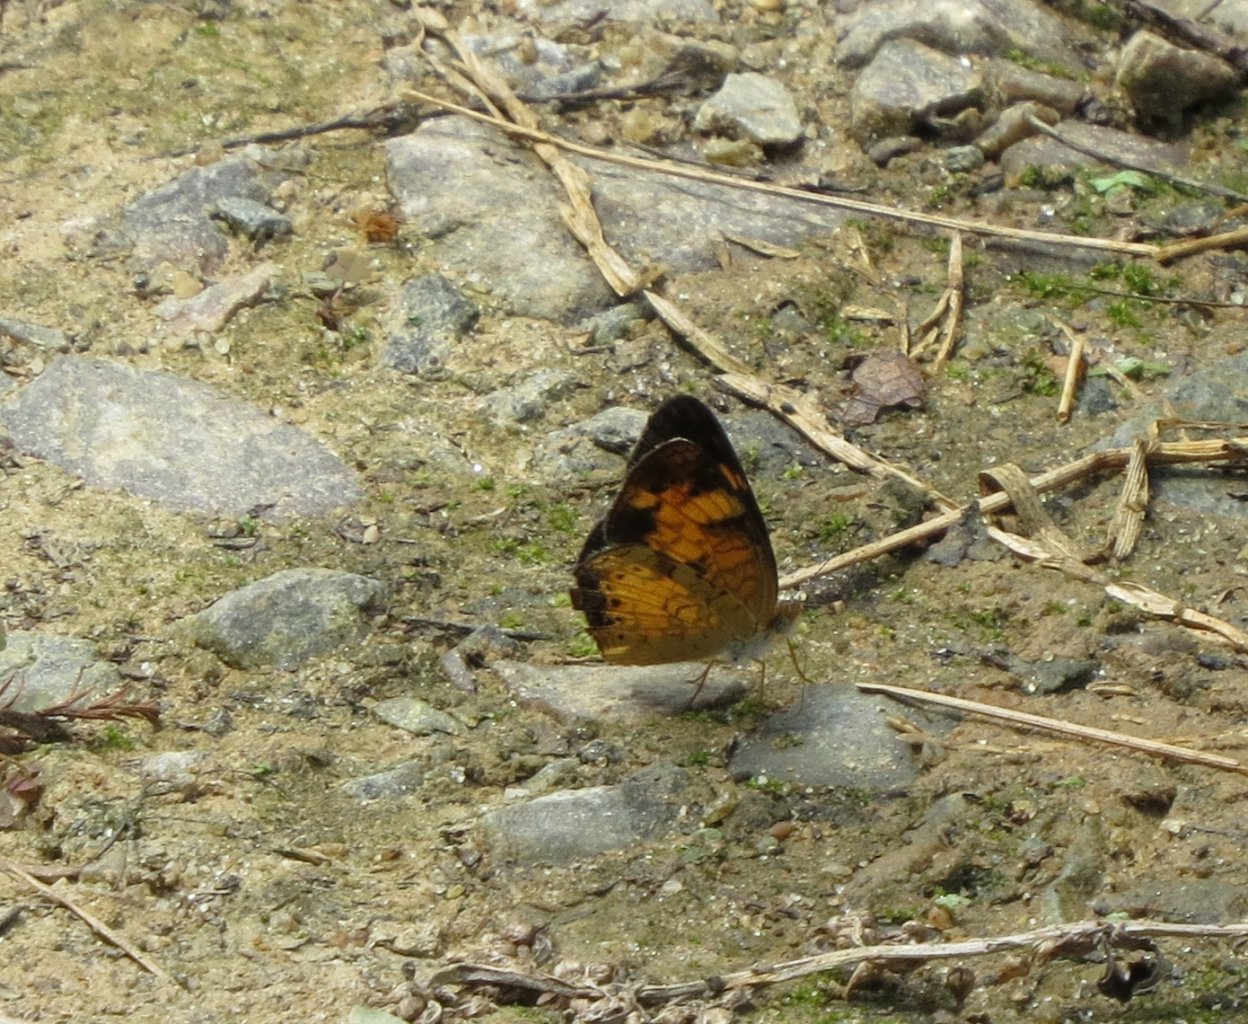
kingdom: Animalia
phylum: Arthropoda
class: Insecta
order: Lepidoptera
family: Nymphalidae
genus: Phyciodes
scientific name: Phyciodes tharos
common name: Pearl Crescent
